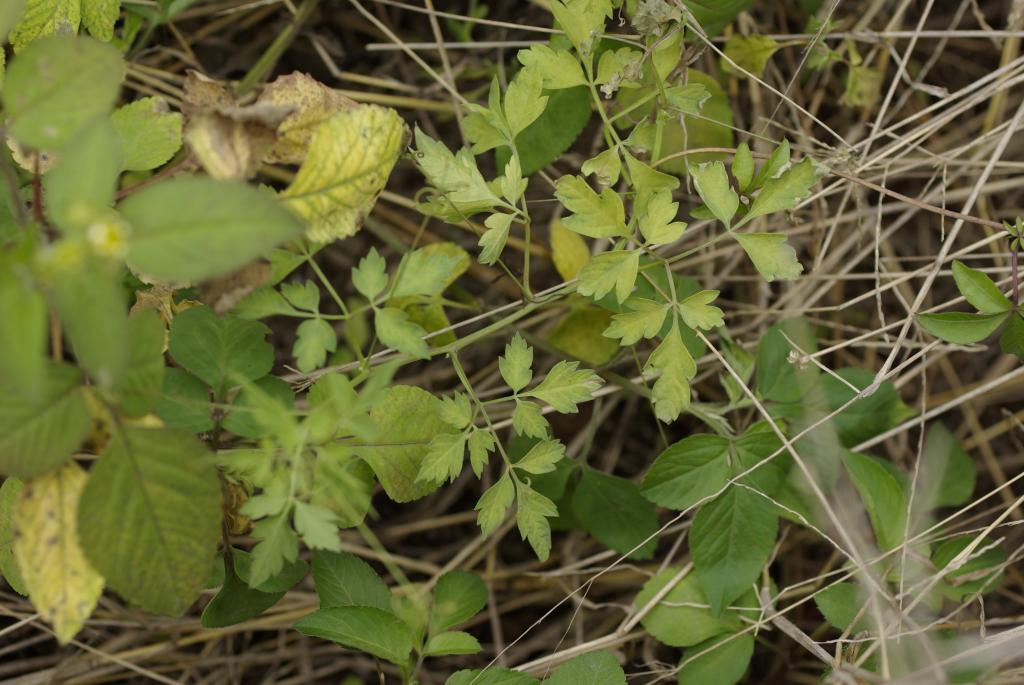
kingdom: Plantae
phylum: Tracheophyta
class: Magnoliopsida
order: Sapindales
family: Sapindaceae
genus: Cardiospermum
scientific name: Cardiospermum halicacabum
